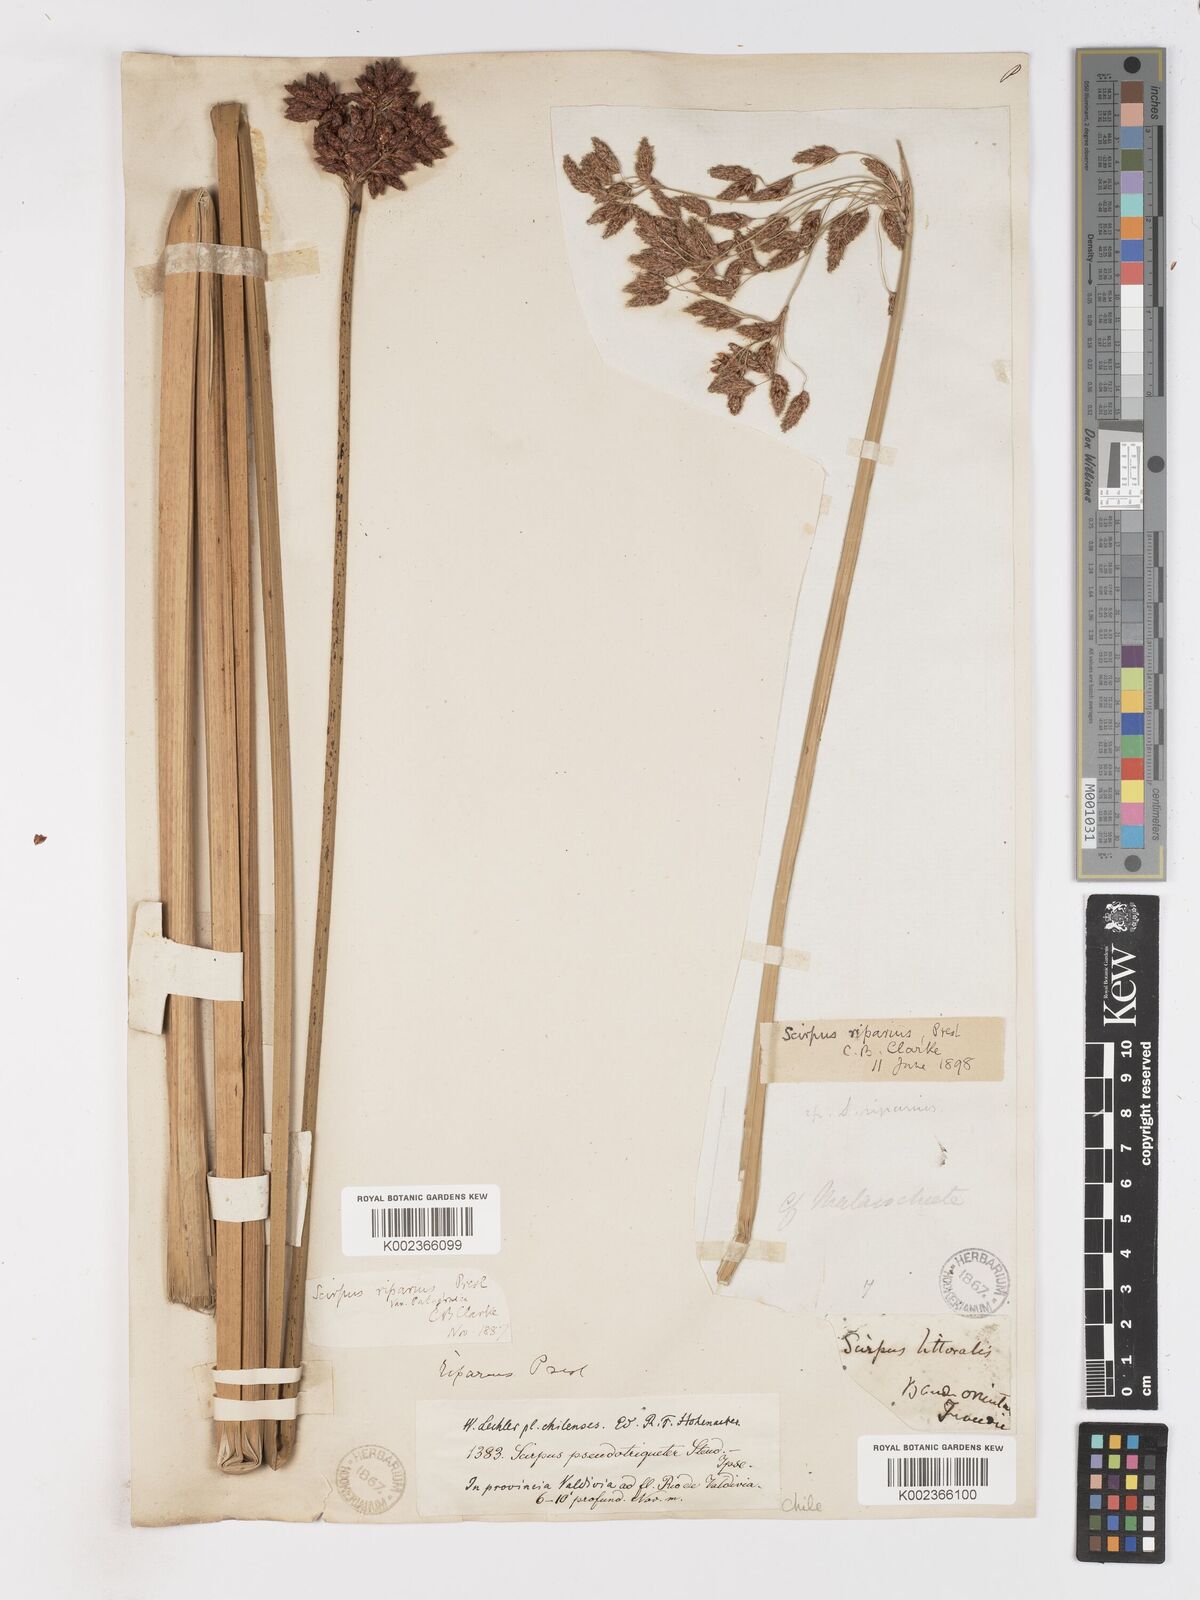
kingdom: Plantae
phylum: Tracheophyta
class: Liliopsida
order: Poales
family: Cyperaceae
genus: Schoenoplectus
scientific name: Schoenoplectus californicus
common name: California bulrush
